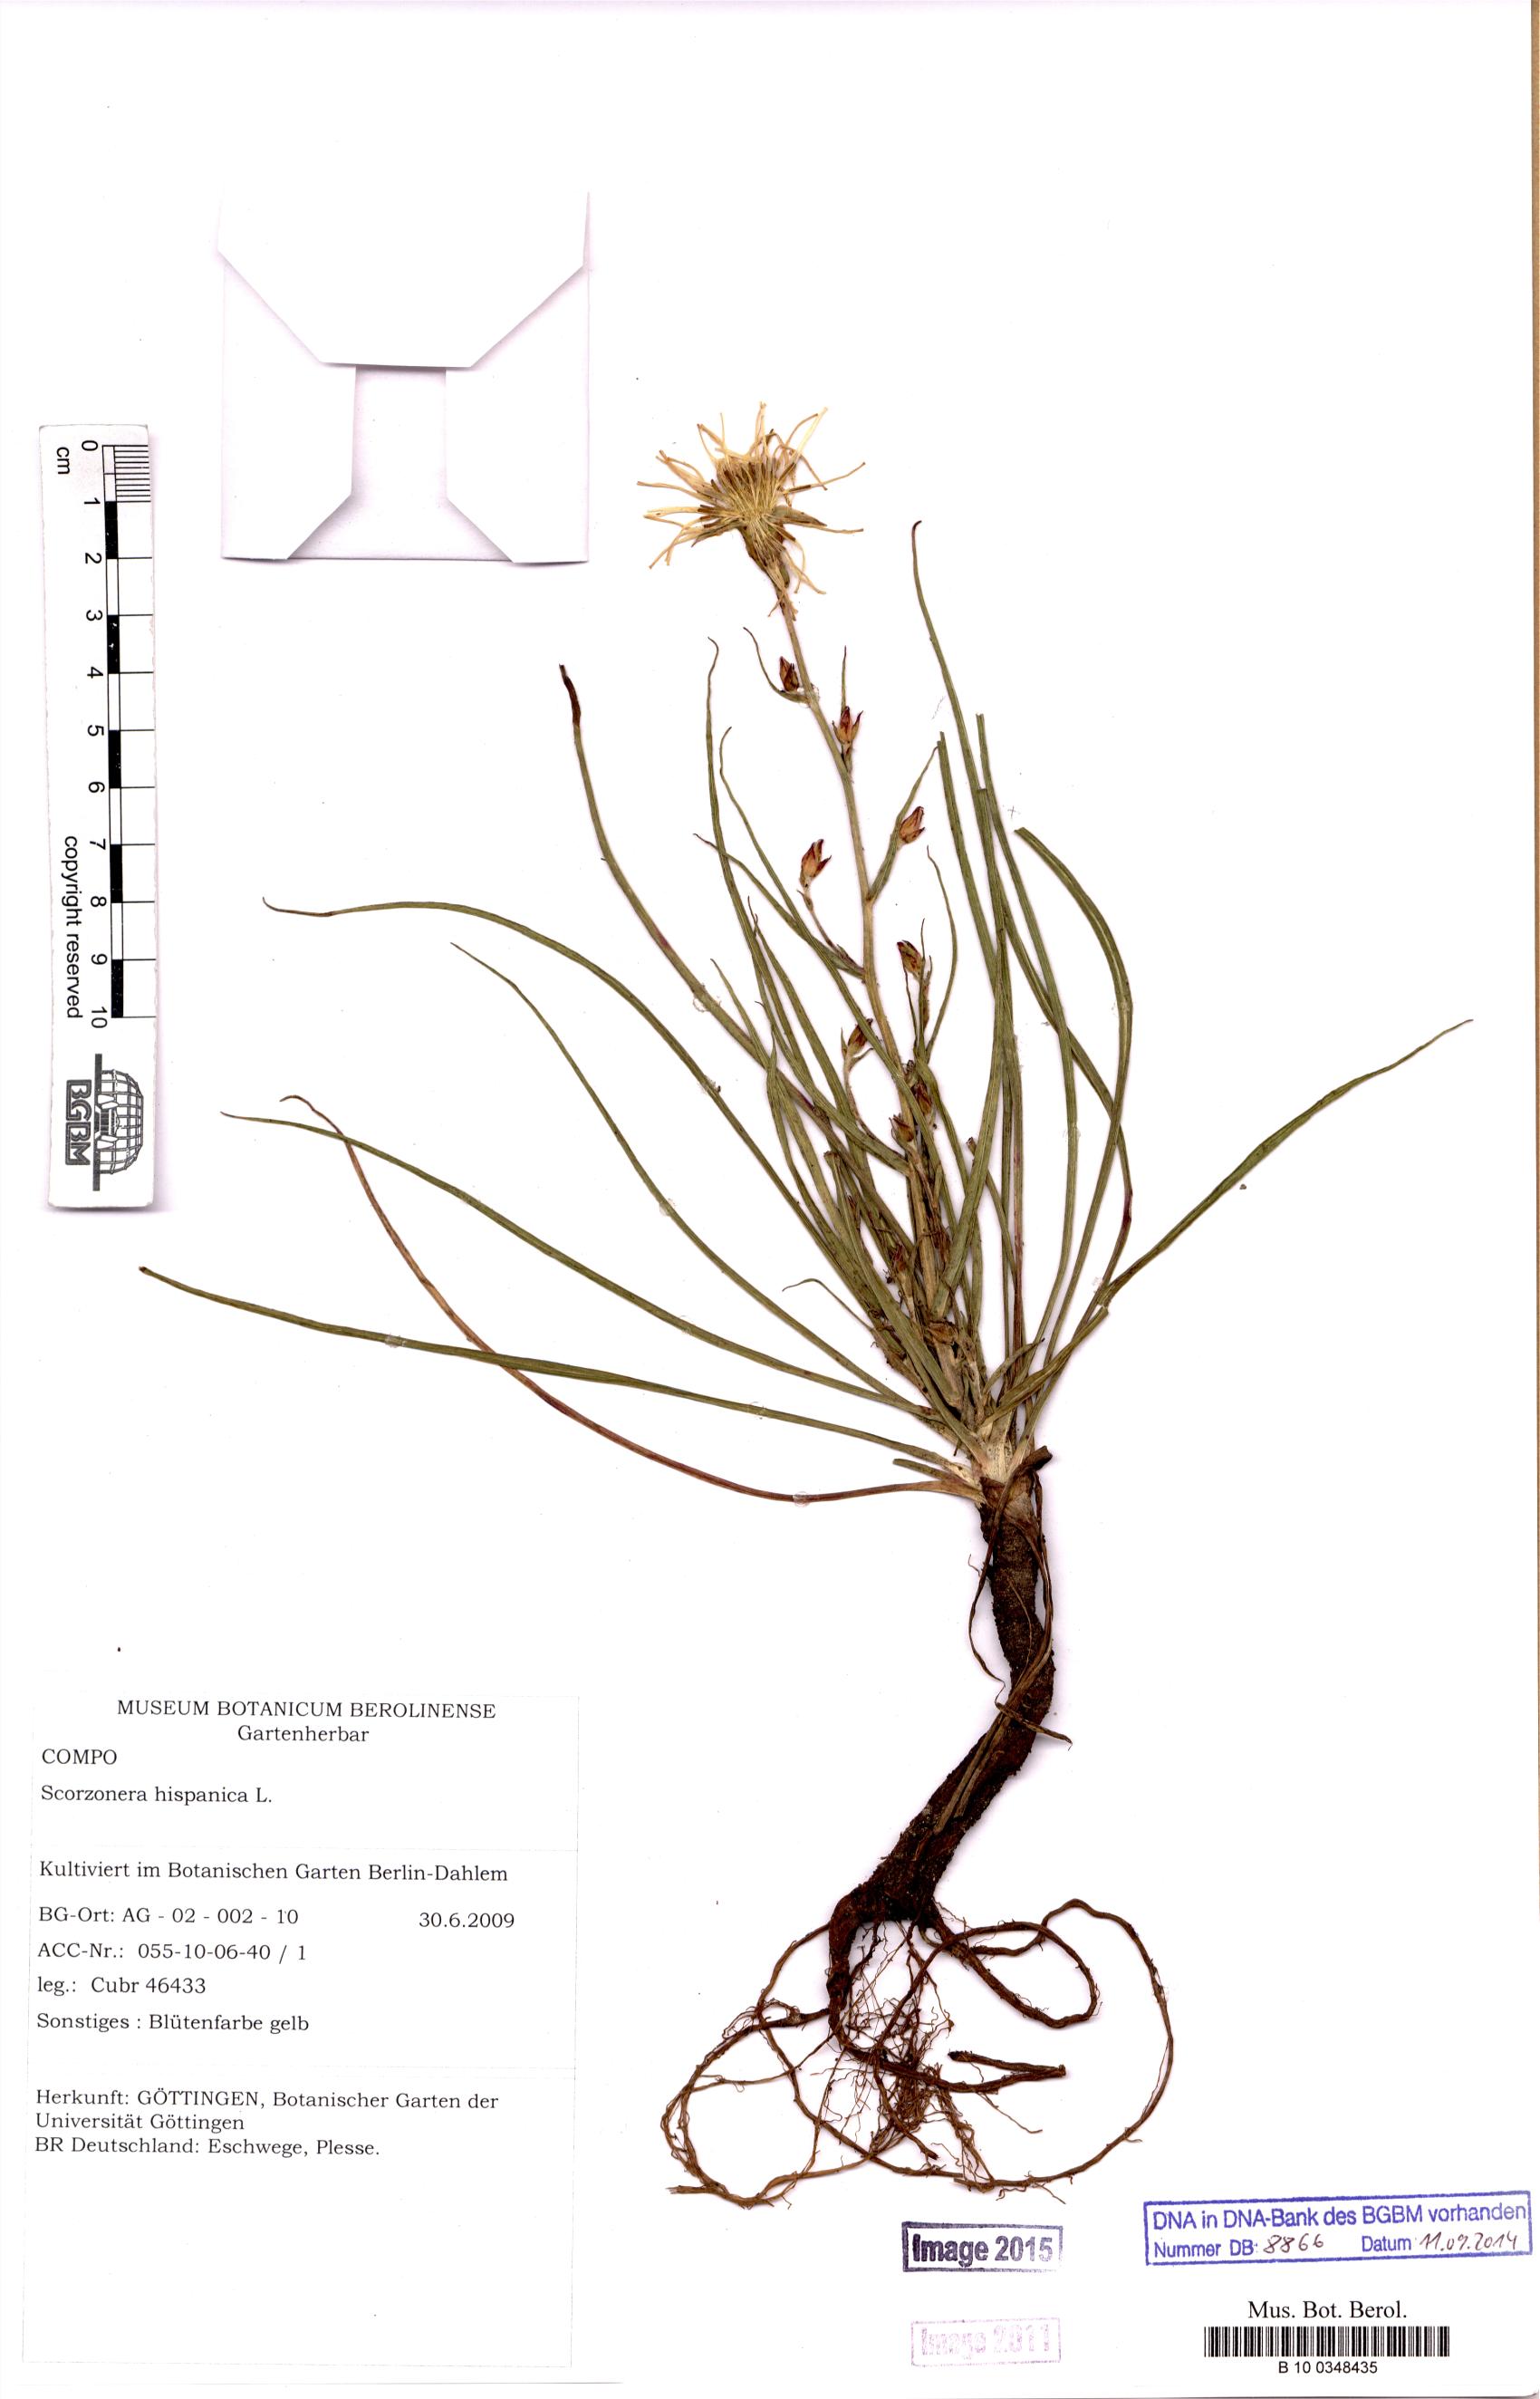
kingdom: Plantae
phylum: Tracheophyta
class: Magnoliopsida
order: Asterales
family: Asteraceae
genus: Pseudopodospermum
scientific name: Pseudopodospermum hispanicum
